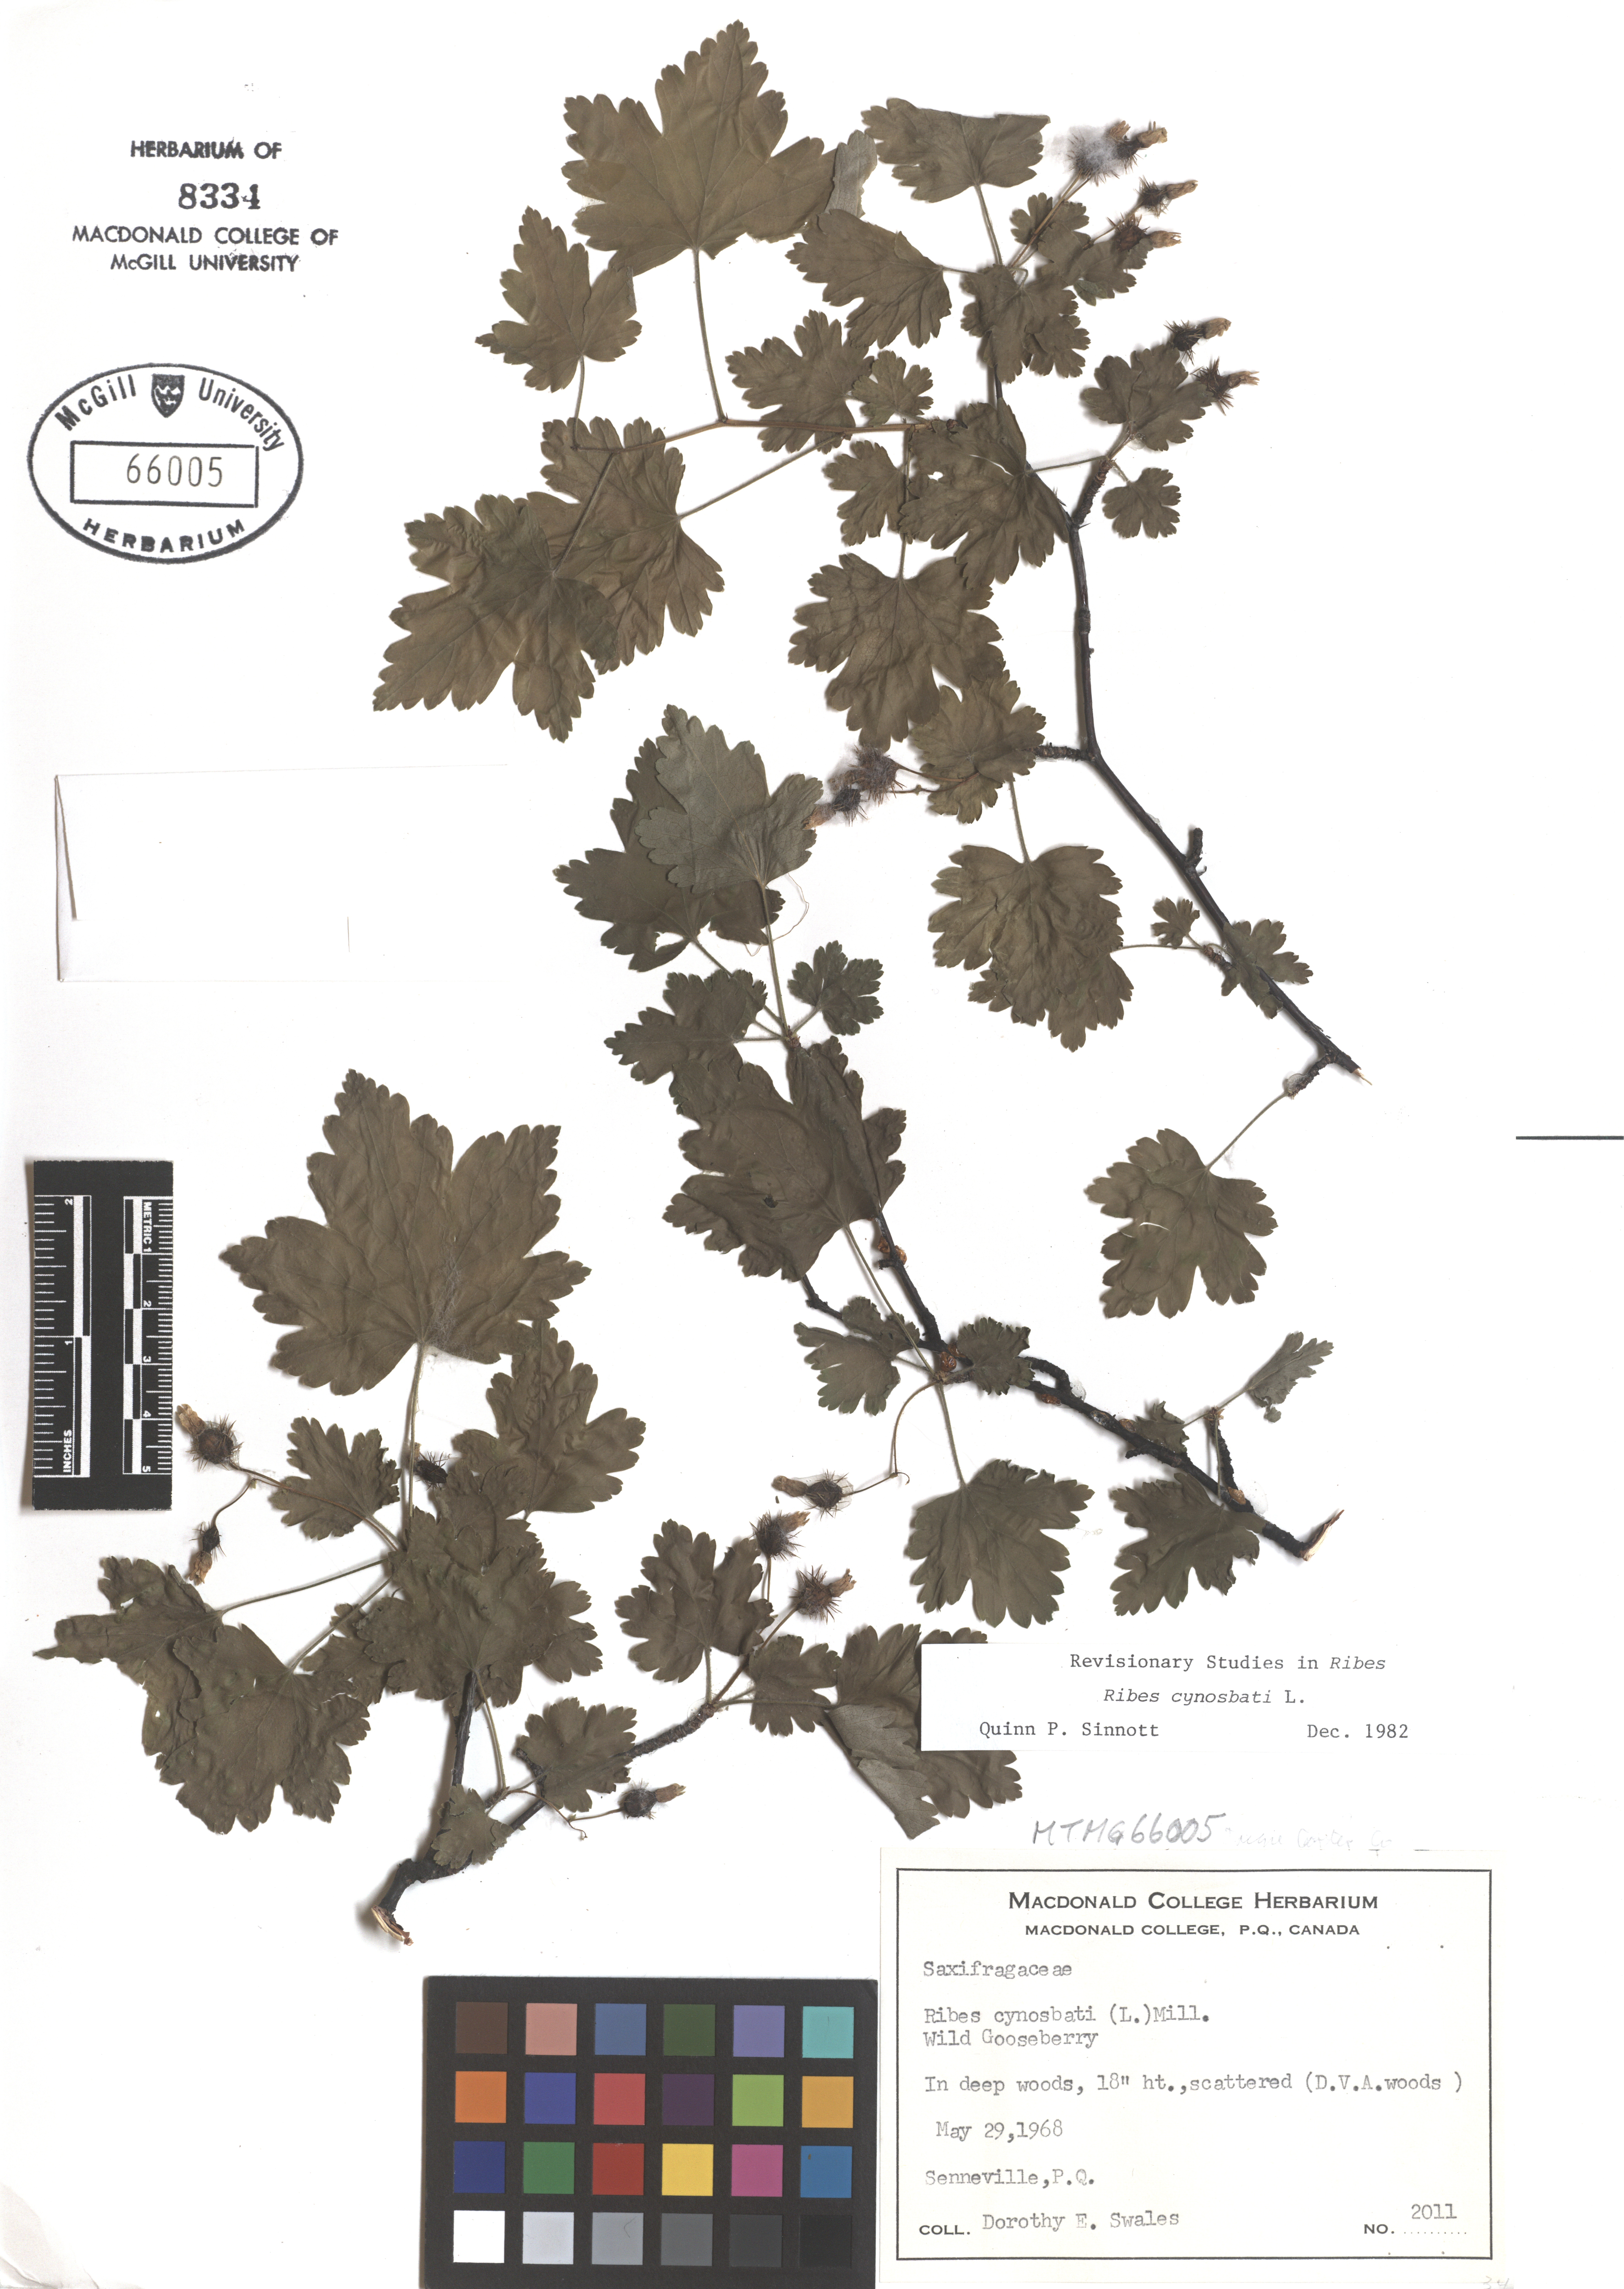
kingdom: Plantae
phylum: Tracheophyta
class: Magnoliopsida
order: Saxifragales
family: Grossulariaceae
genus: Ribes
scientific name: Ribes cynosbati
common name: American gooseberry
